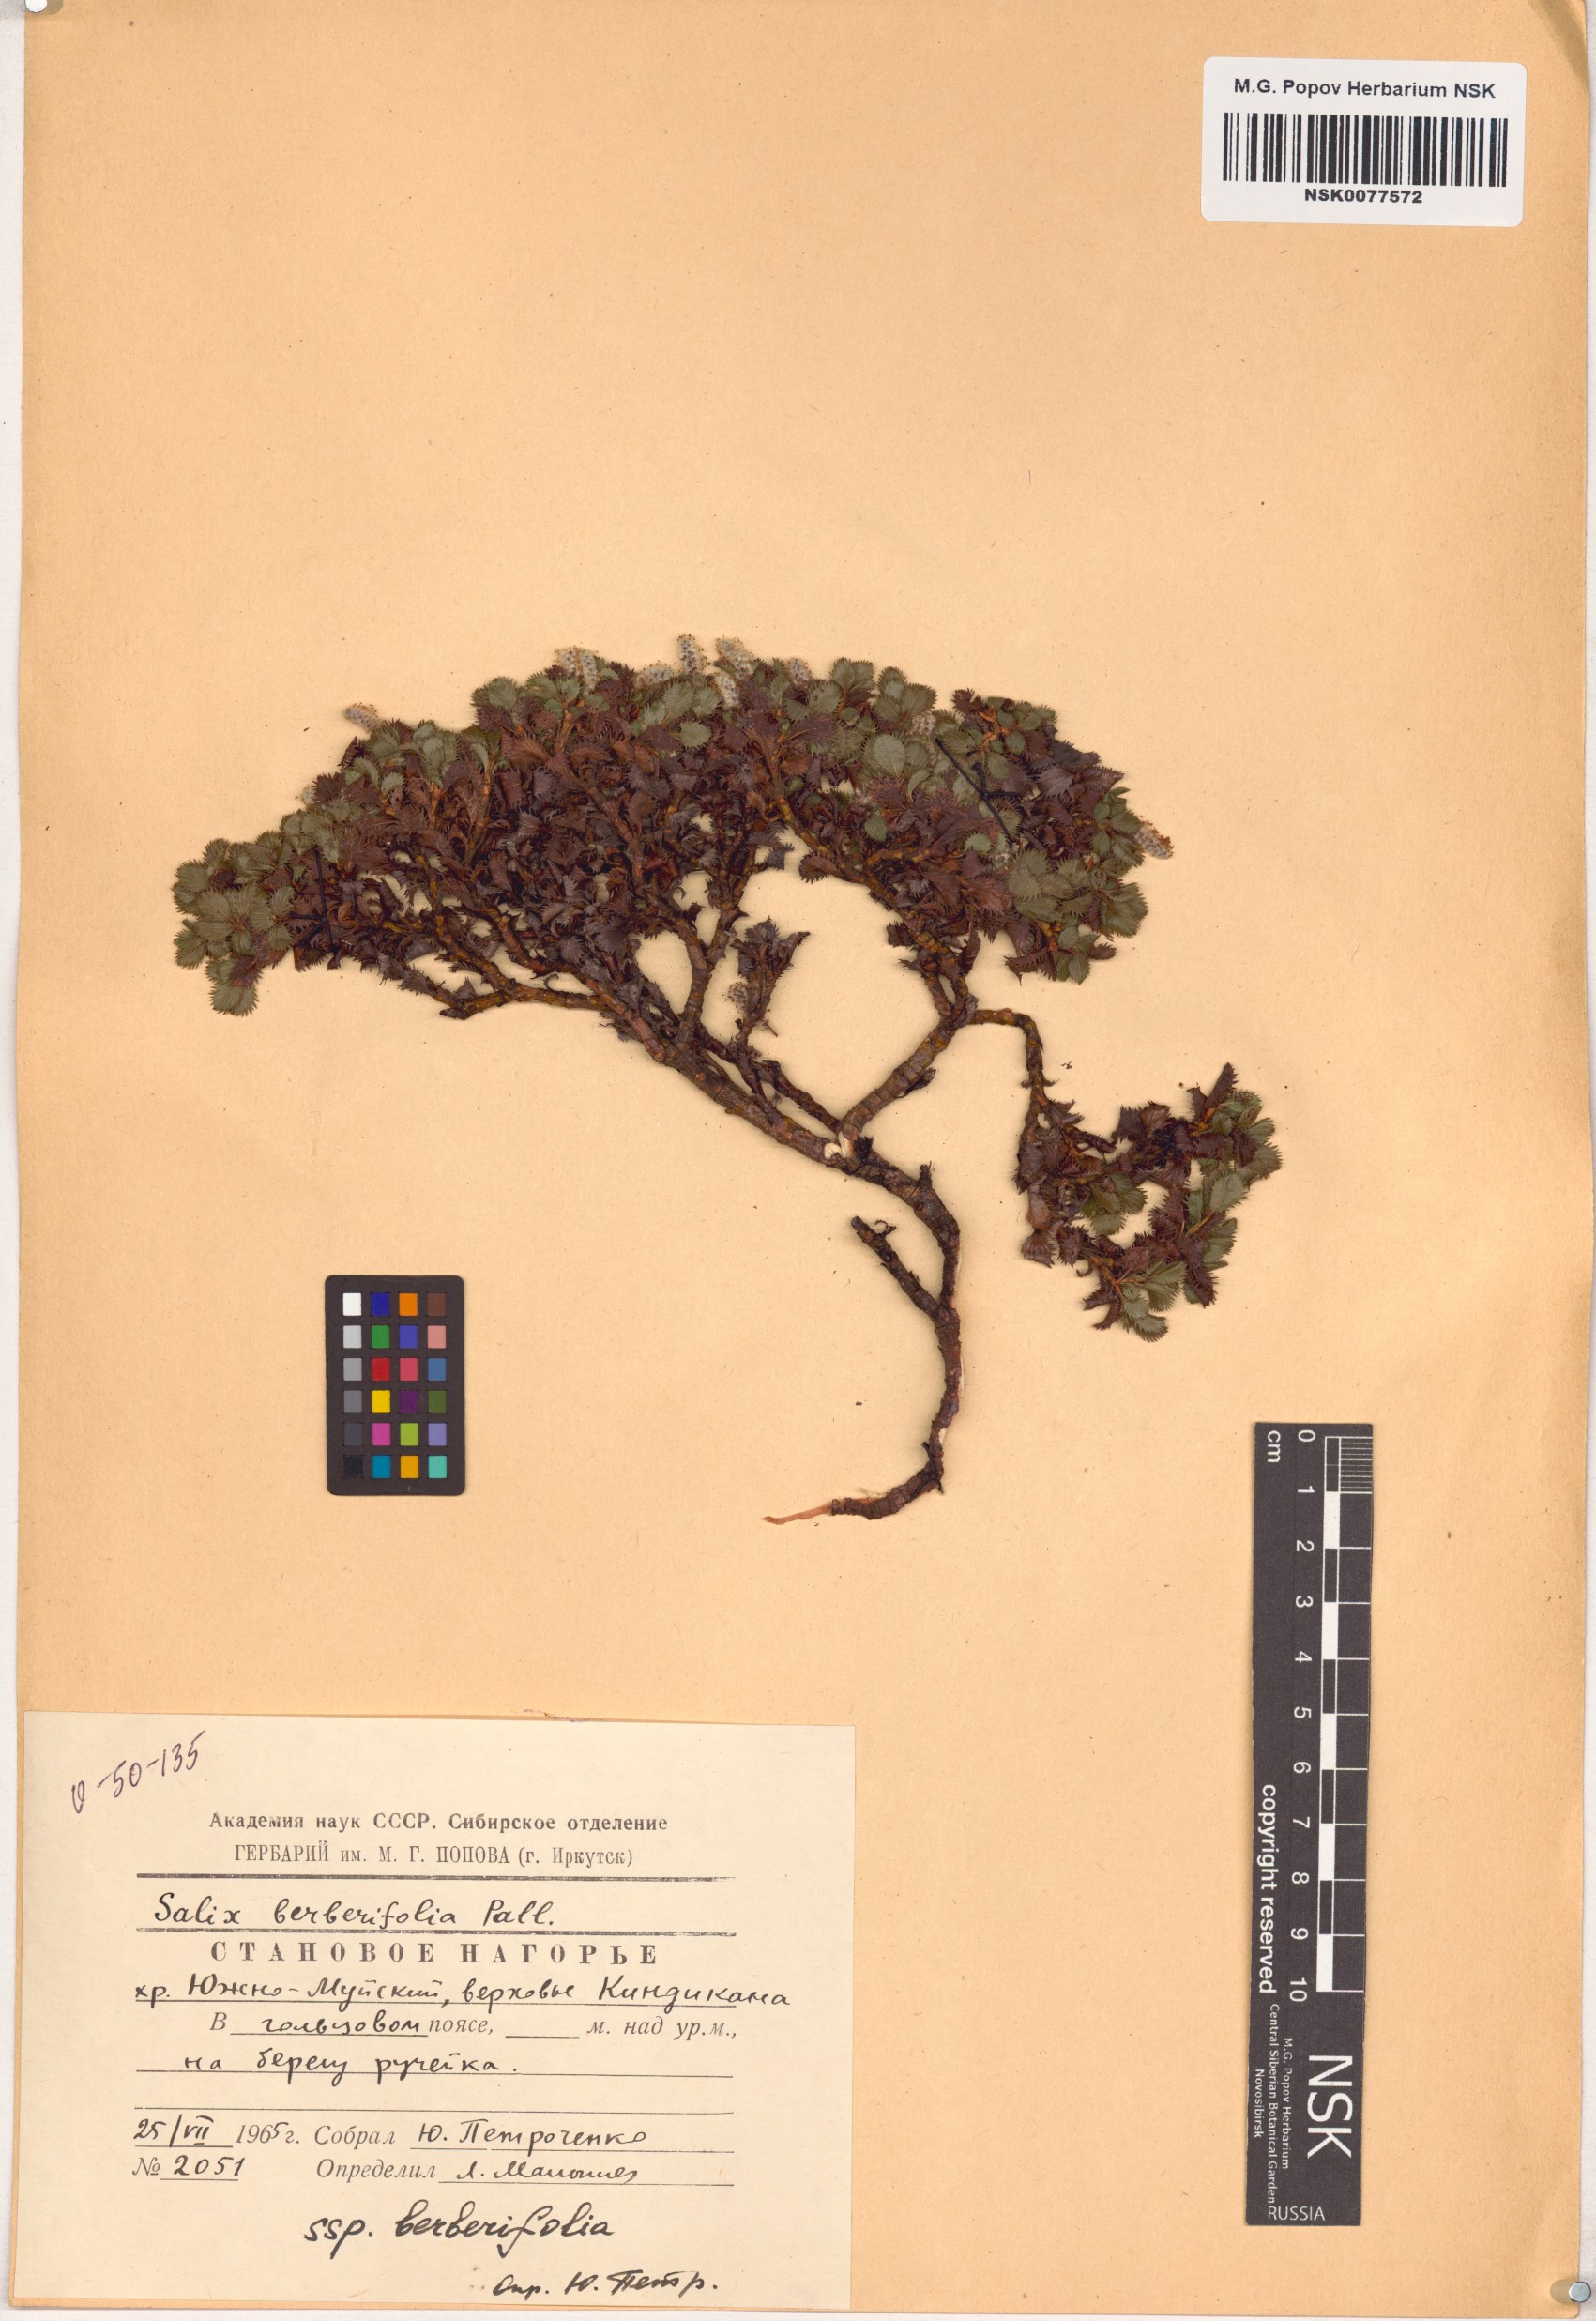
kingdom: Plantae
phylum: Tracheophyta
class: Magnoliopsida
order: Malpighiales
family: Salicaceae
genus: Salix
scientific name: Salix berberifolia
